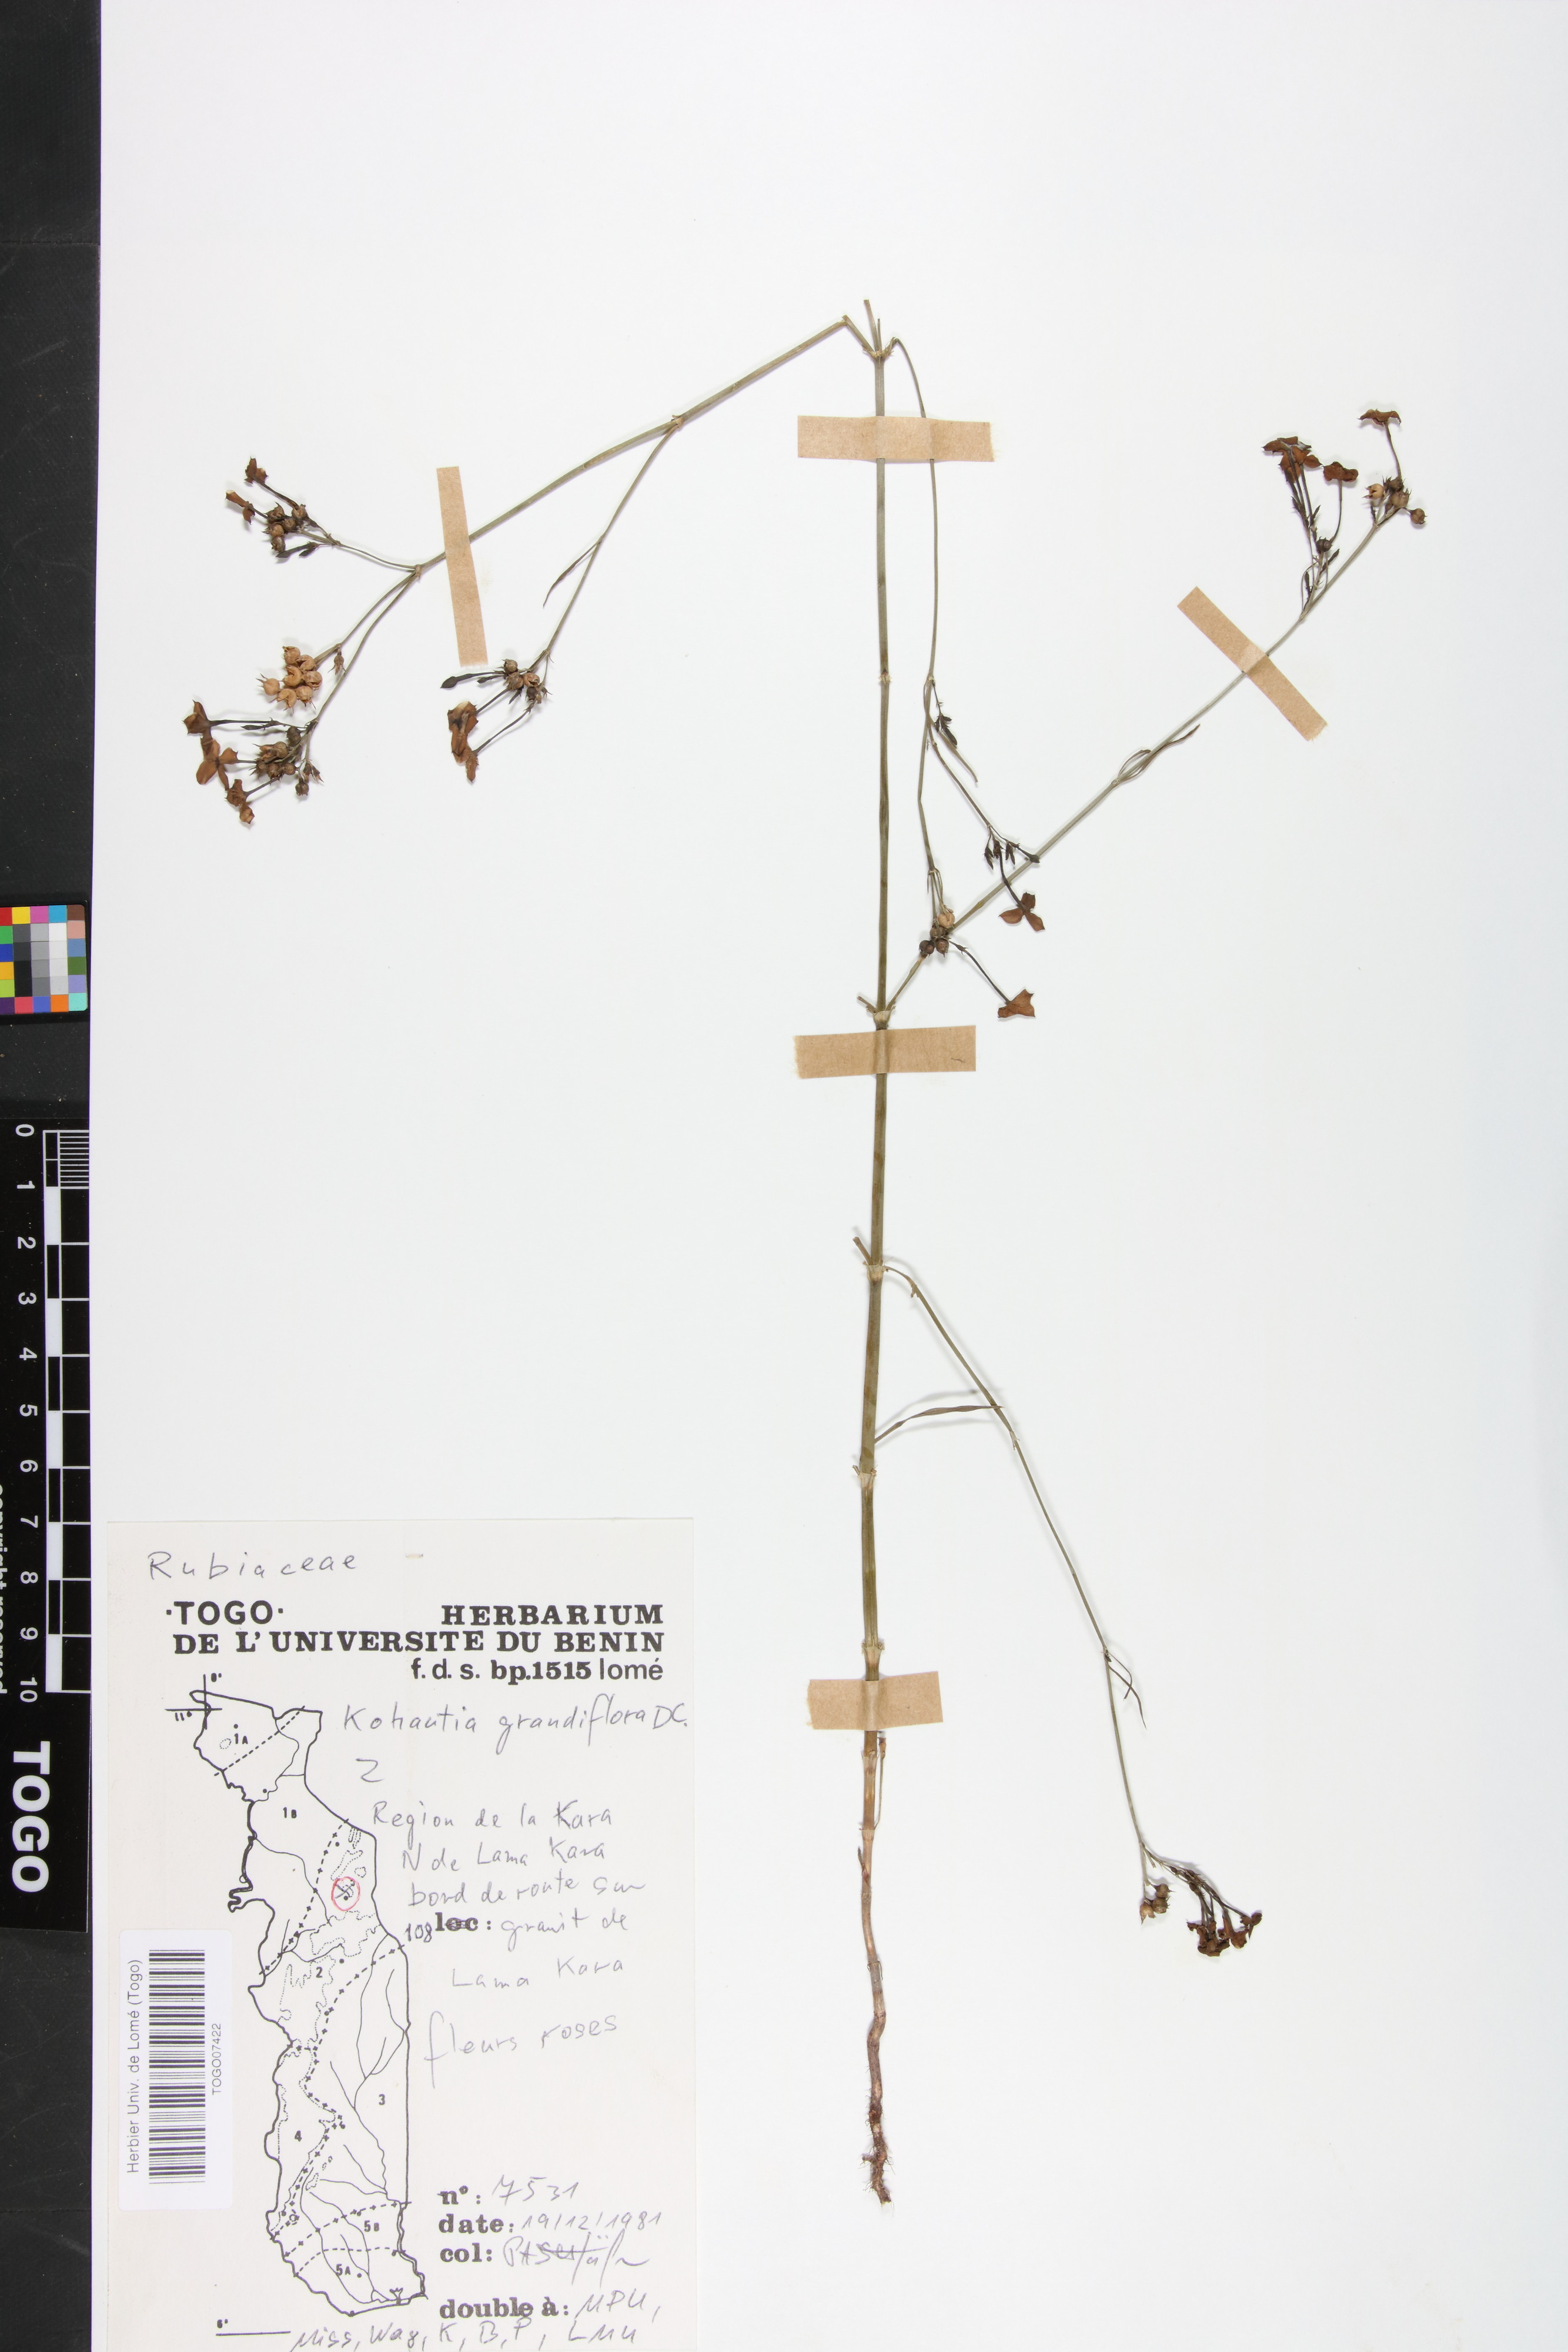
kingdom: Plantae
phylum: Tracheophyta
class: Magnoliopsida
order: Gentianales
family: Rubiaceae
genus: Kohautia
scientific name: Kohautia grandiflora
